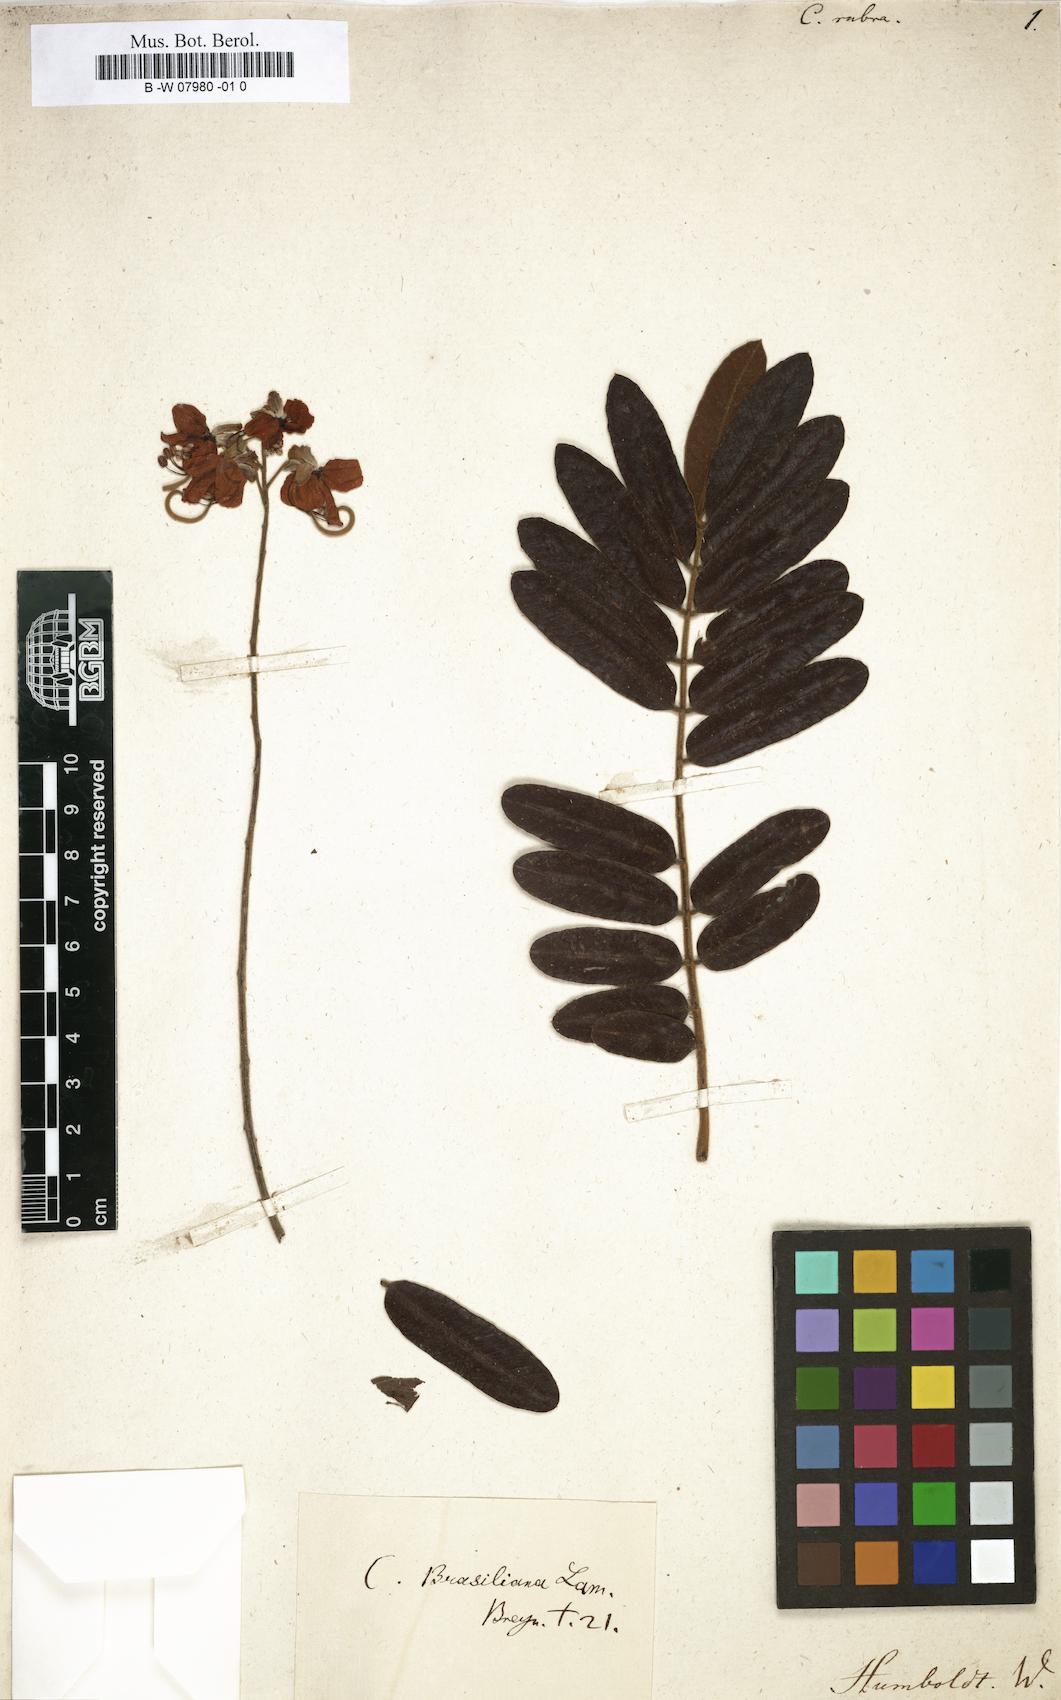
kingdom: Plantae
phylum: Tracheophyta
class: Magnoliopsida
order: Fabales
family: Fabaceae
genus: Cassia
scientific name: Cassia
